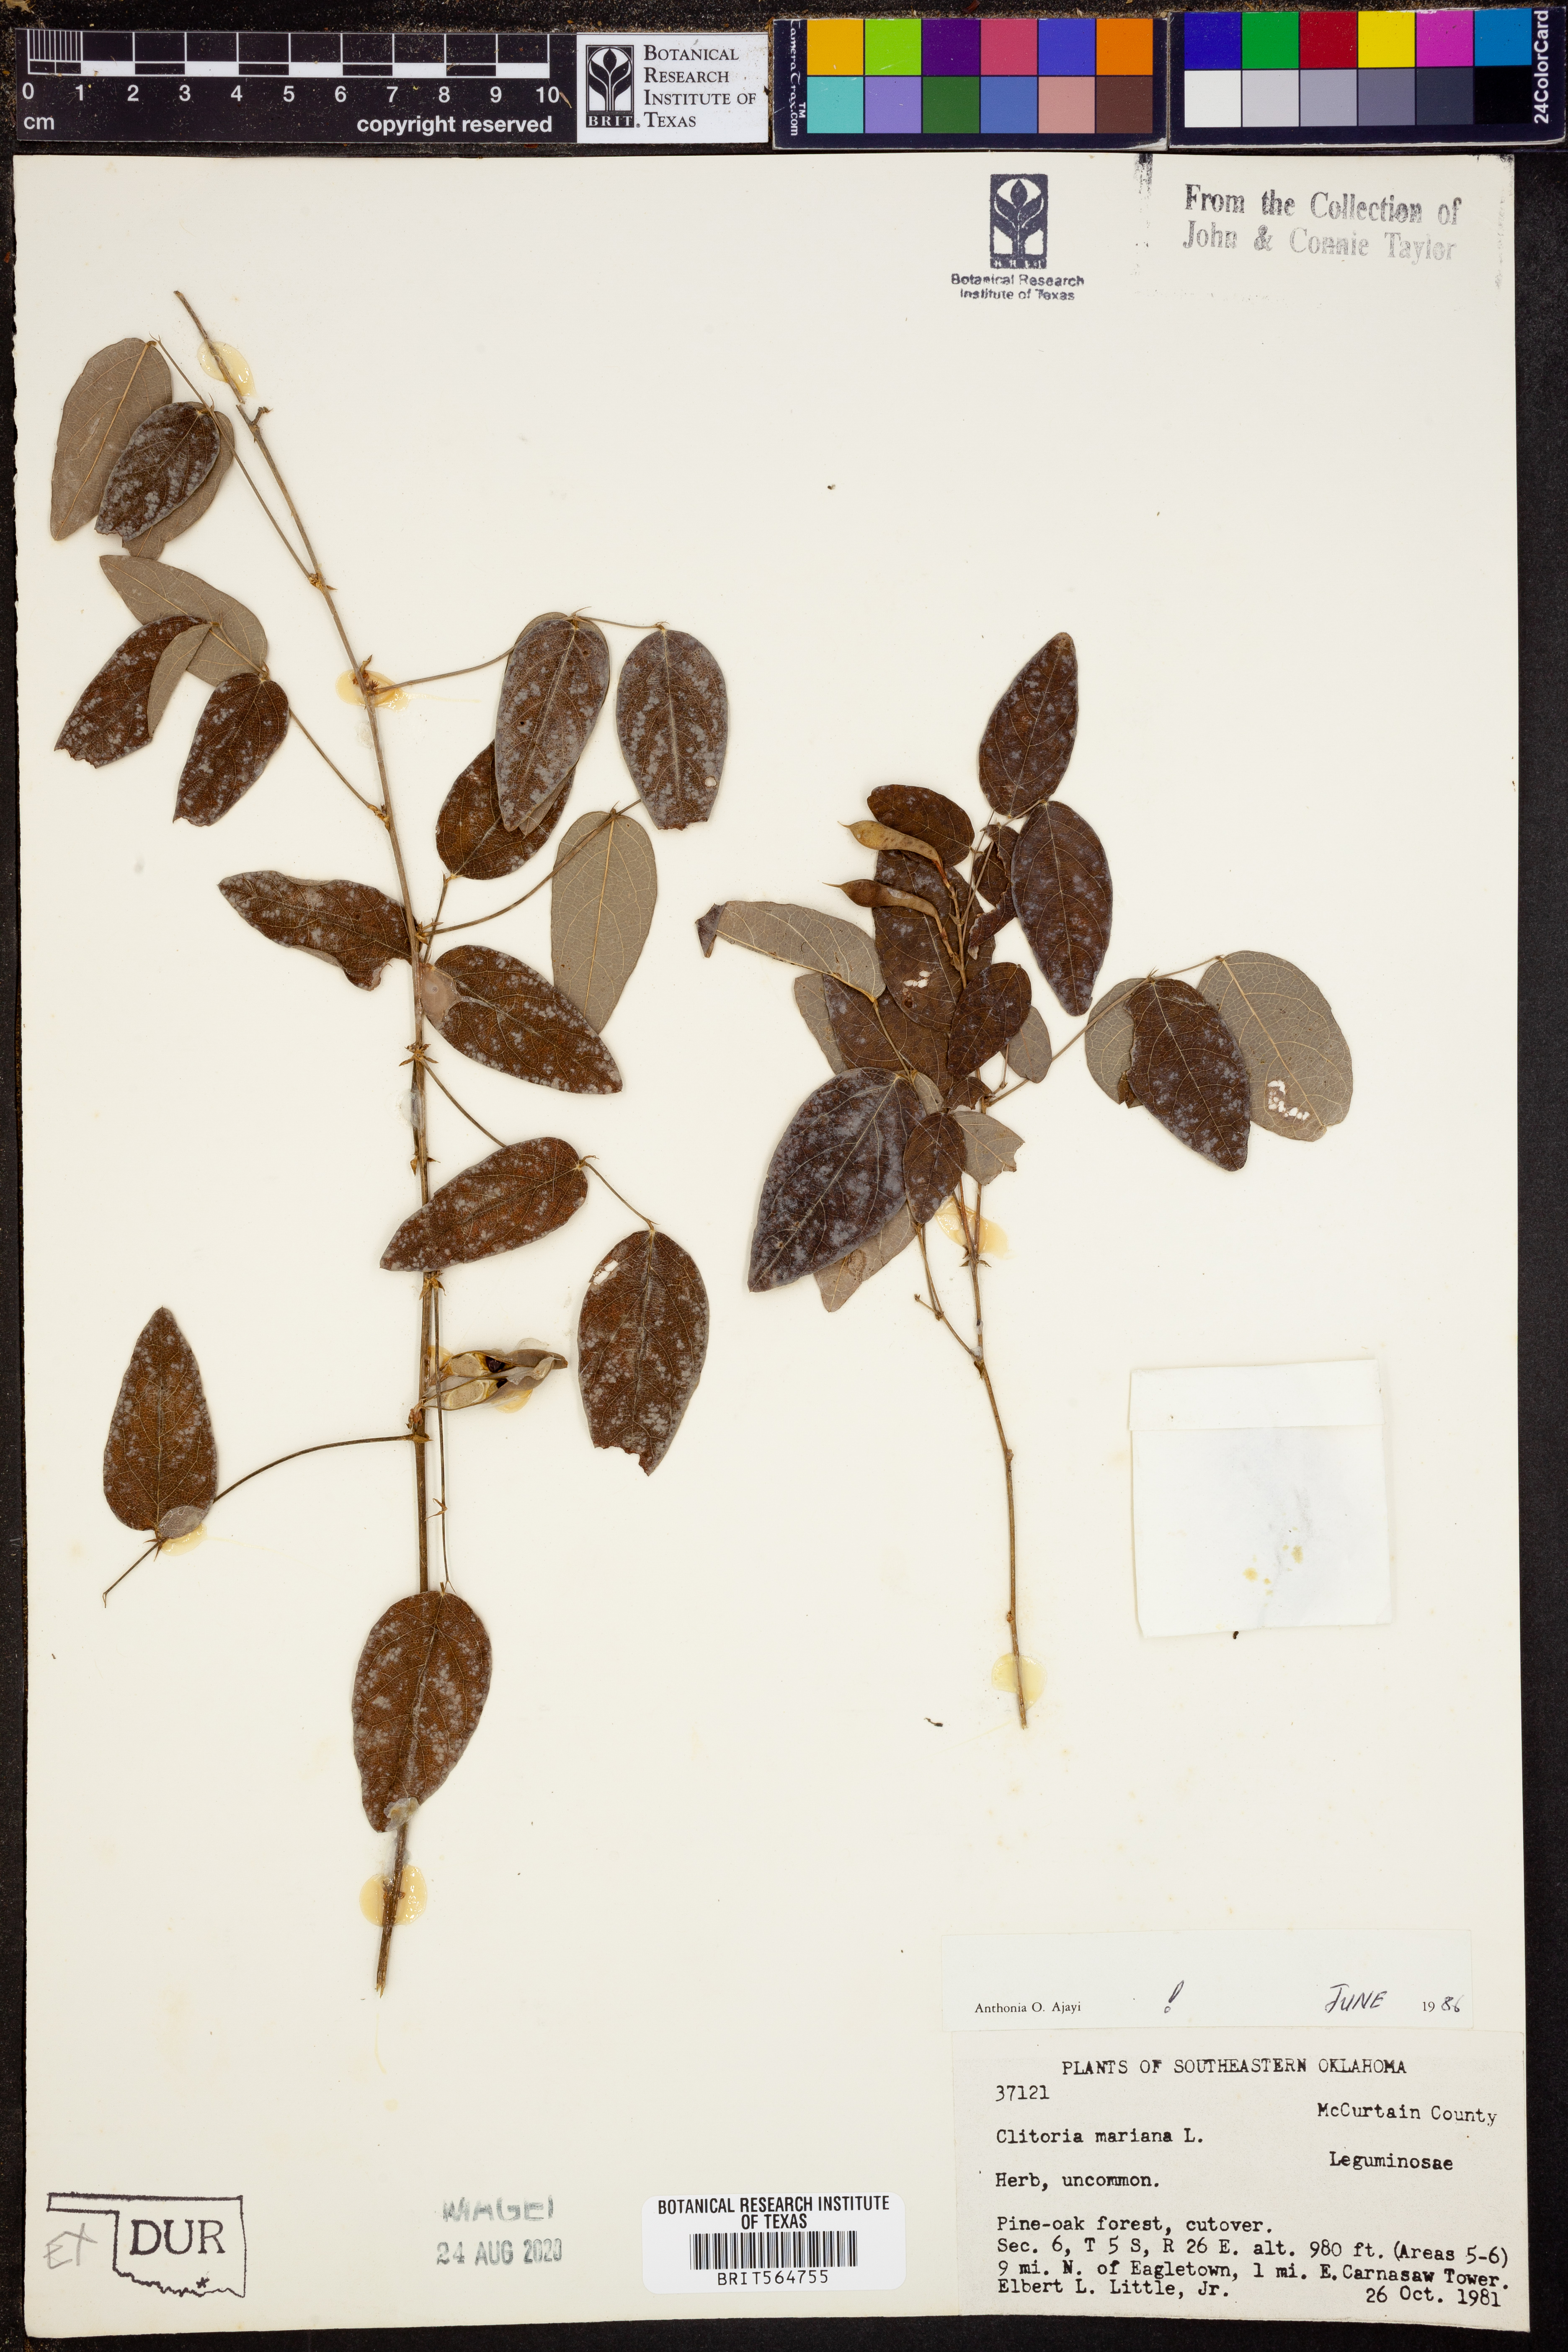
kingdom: Plantae
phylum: Tracheophyta
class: Magnoliopsida
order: Fabales
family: Fabaceae
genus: Clitoria
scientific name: Clitoria mariana
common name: Butterfly-pea
